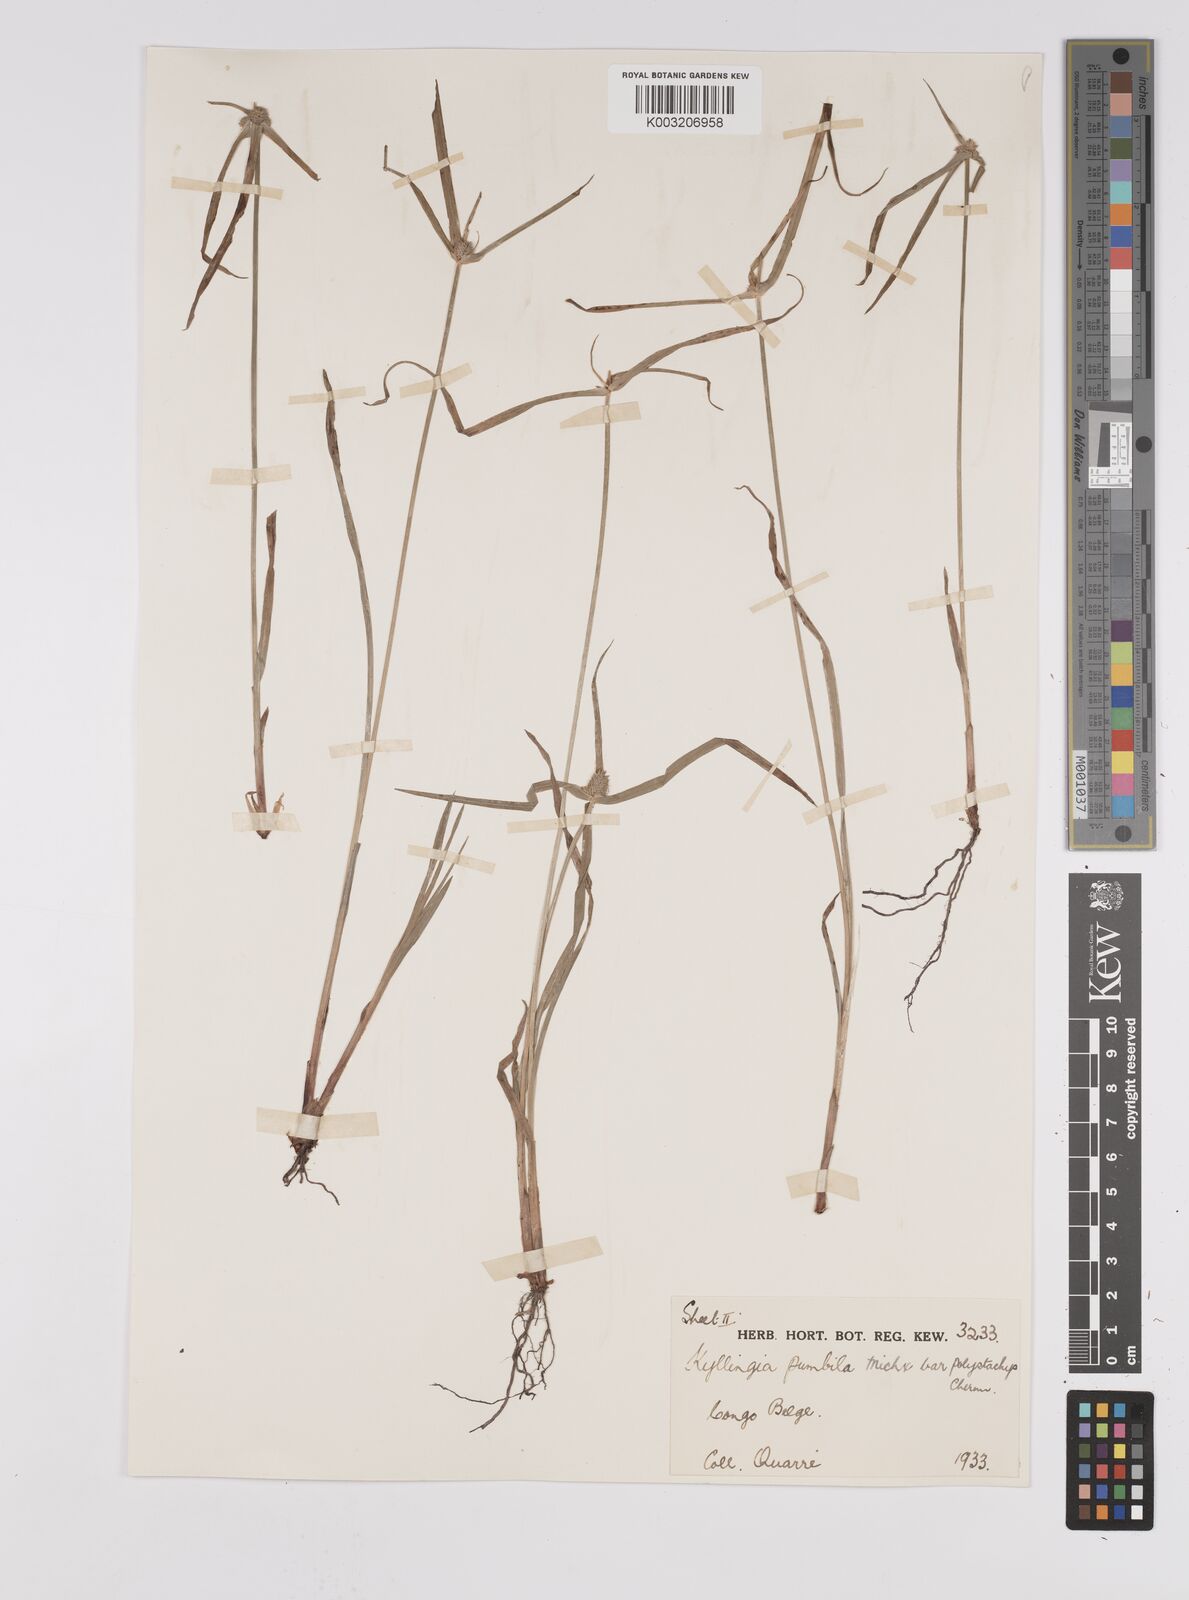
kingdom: Plantae
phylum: Tracheophyta
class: Liliopsida
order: Poales
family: Cyperaceae
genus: Cyperus
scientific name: Cyperus
